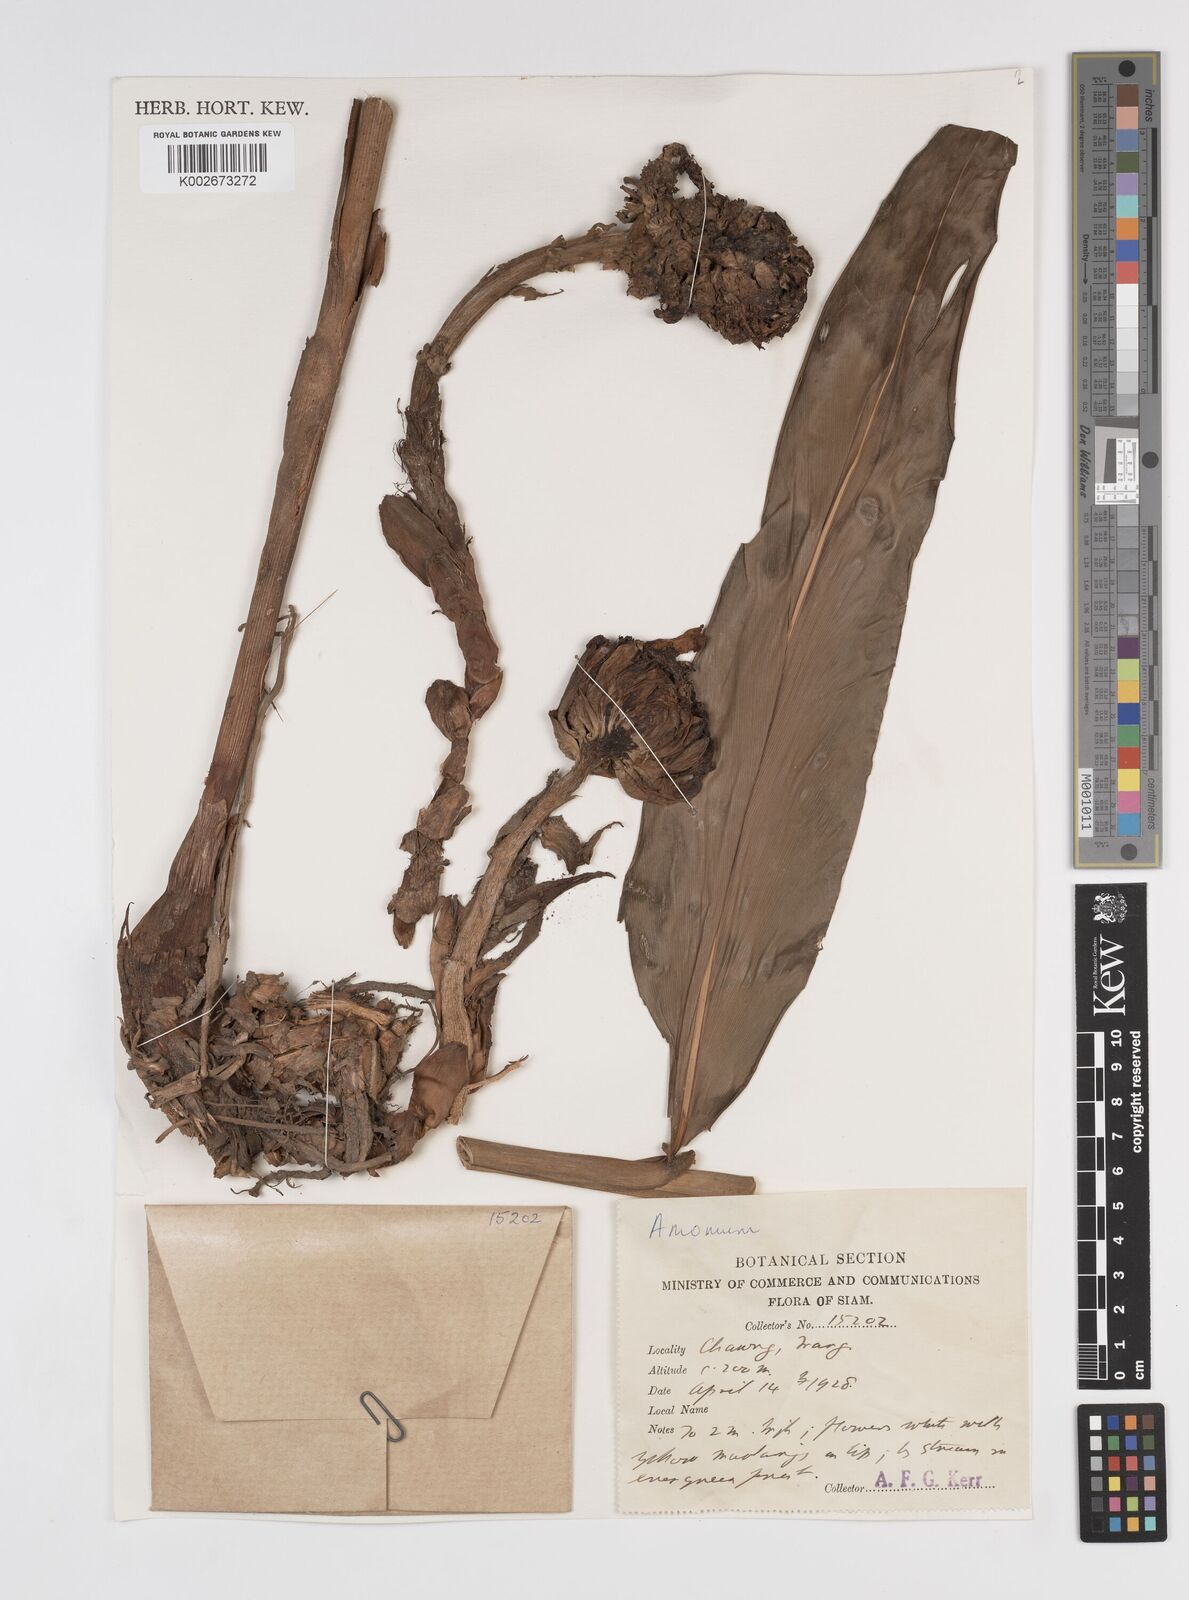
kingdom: Plantae
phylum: Tracheophyta
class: Liliopsida
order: Zingiberales
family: Zingiberaceae
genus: Amomum
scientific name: Amomum
